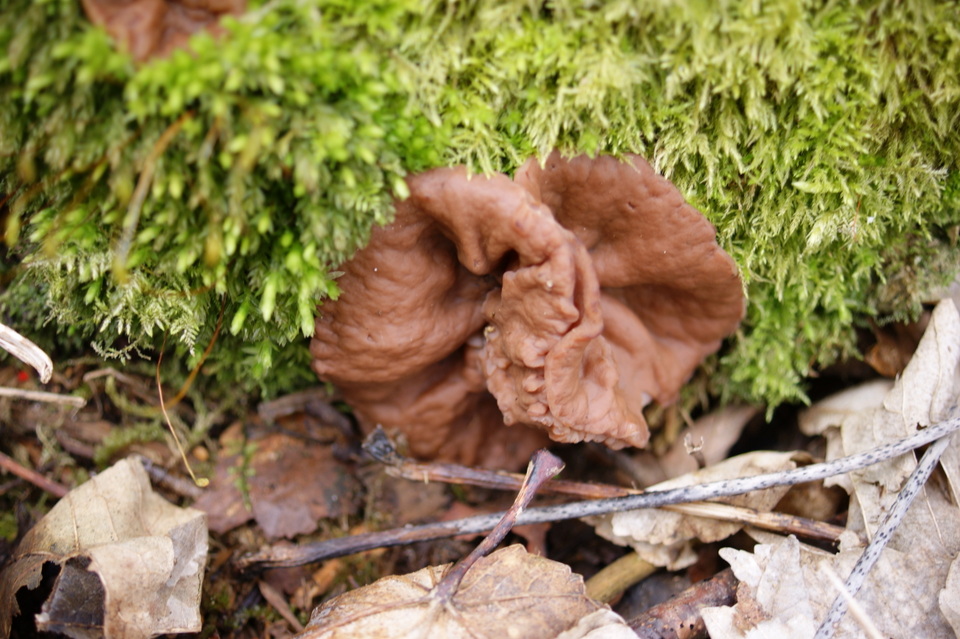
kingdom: Fungi
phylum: Ascomycota
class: Pezizomycetes
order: Pezizales
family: Discinaceae
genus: Discina
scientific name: Discina ancilis
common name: udbredt stenmorkel
